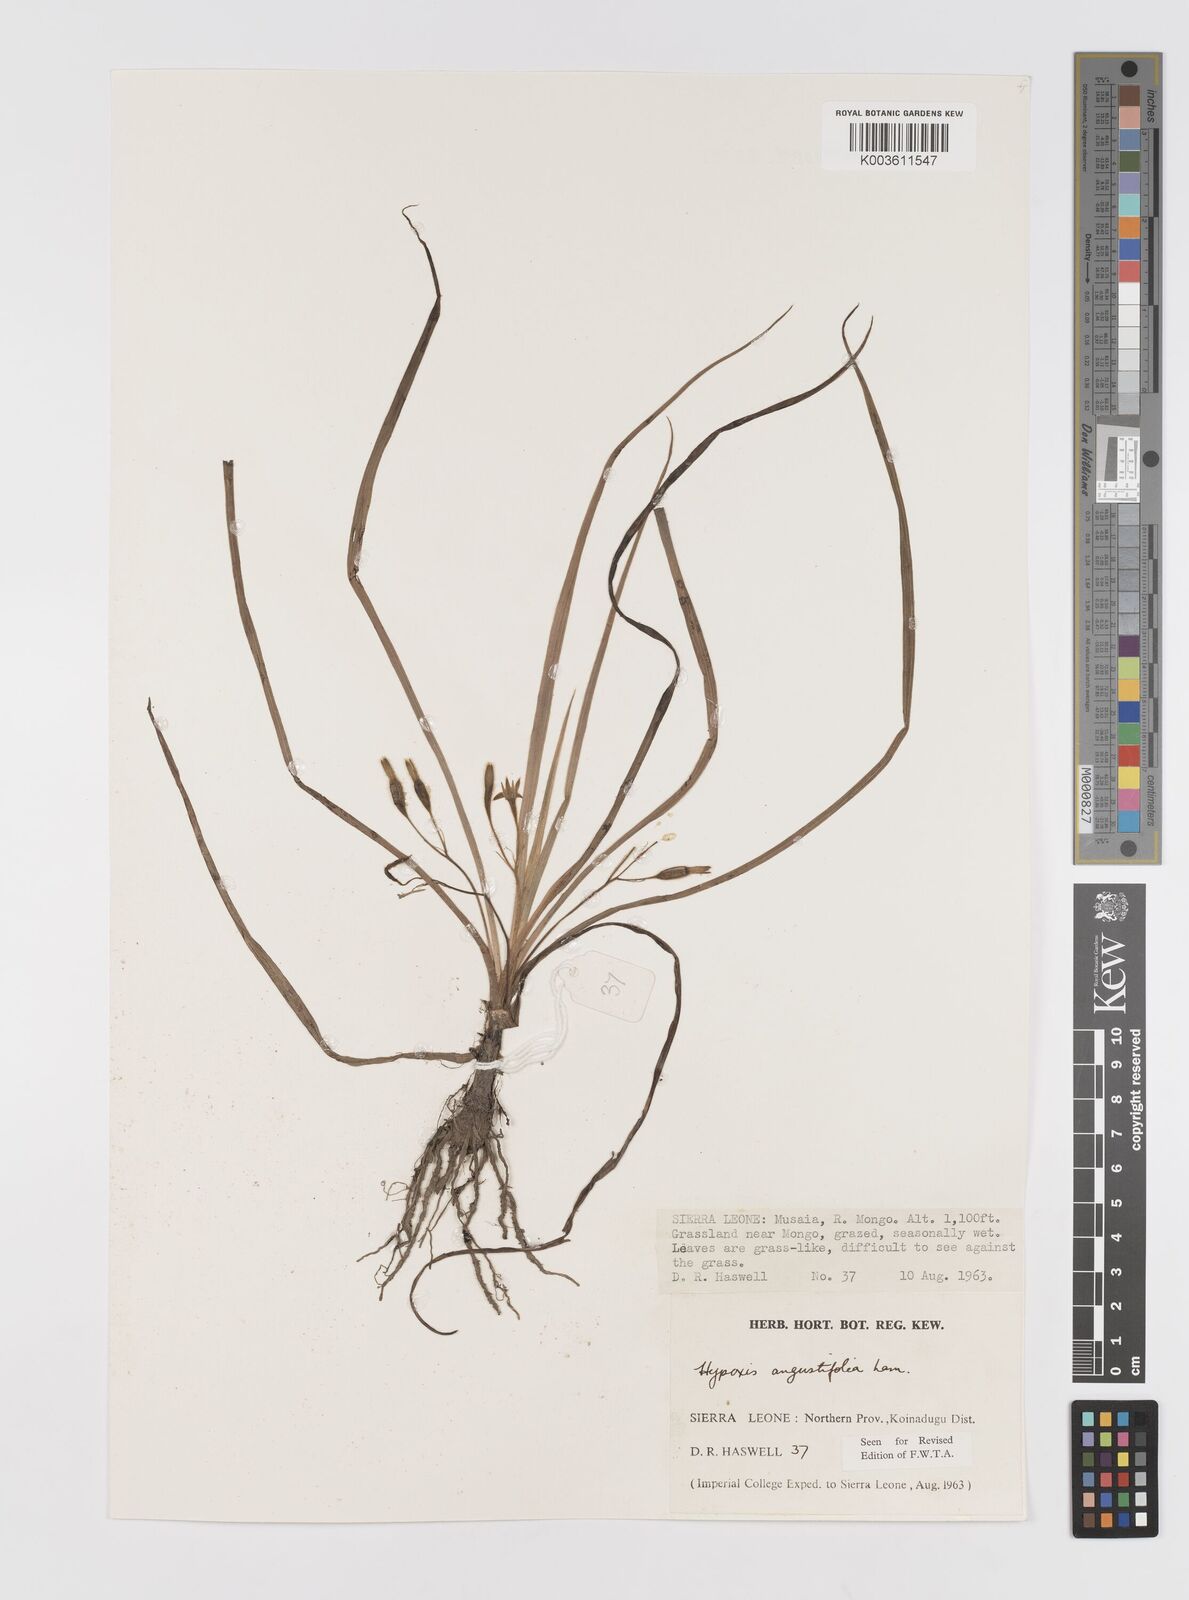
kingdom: Plantae
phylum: Tracheophyta
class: Liliopsida
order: Asparagales
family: Hypoxidaceae
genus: Hypoxis
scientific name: Hypoxis angustifolia
